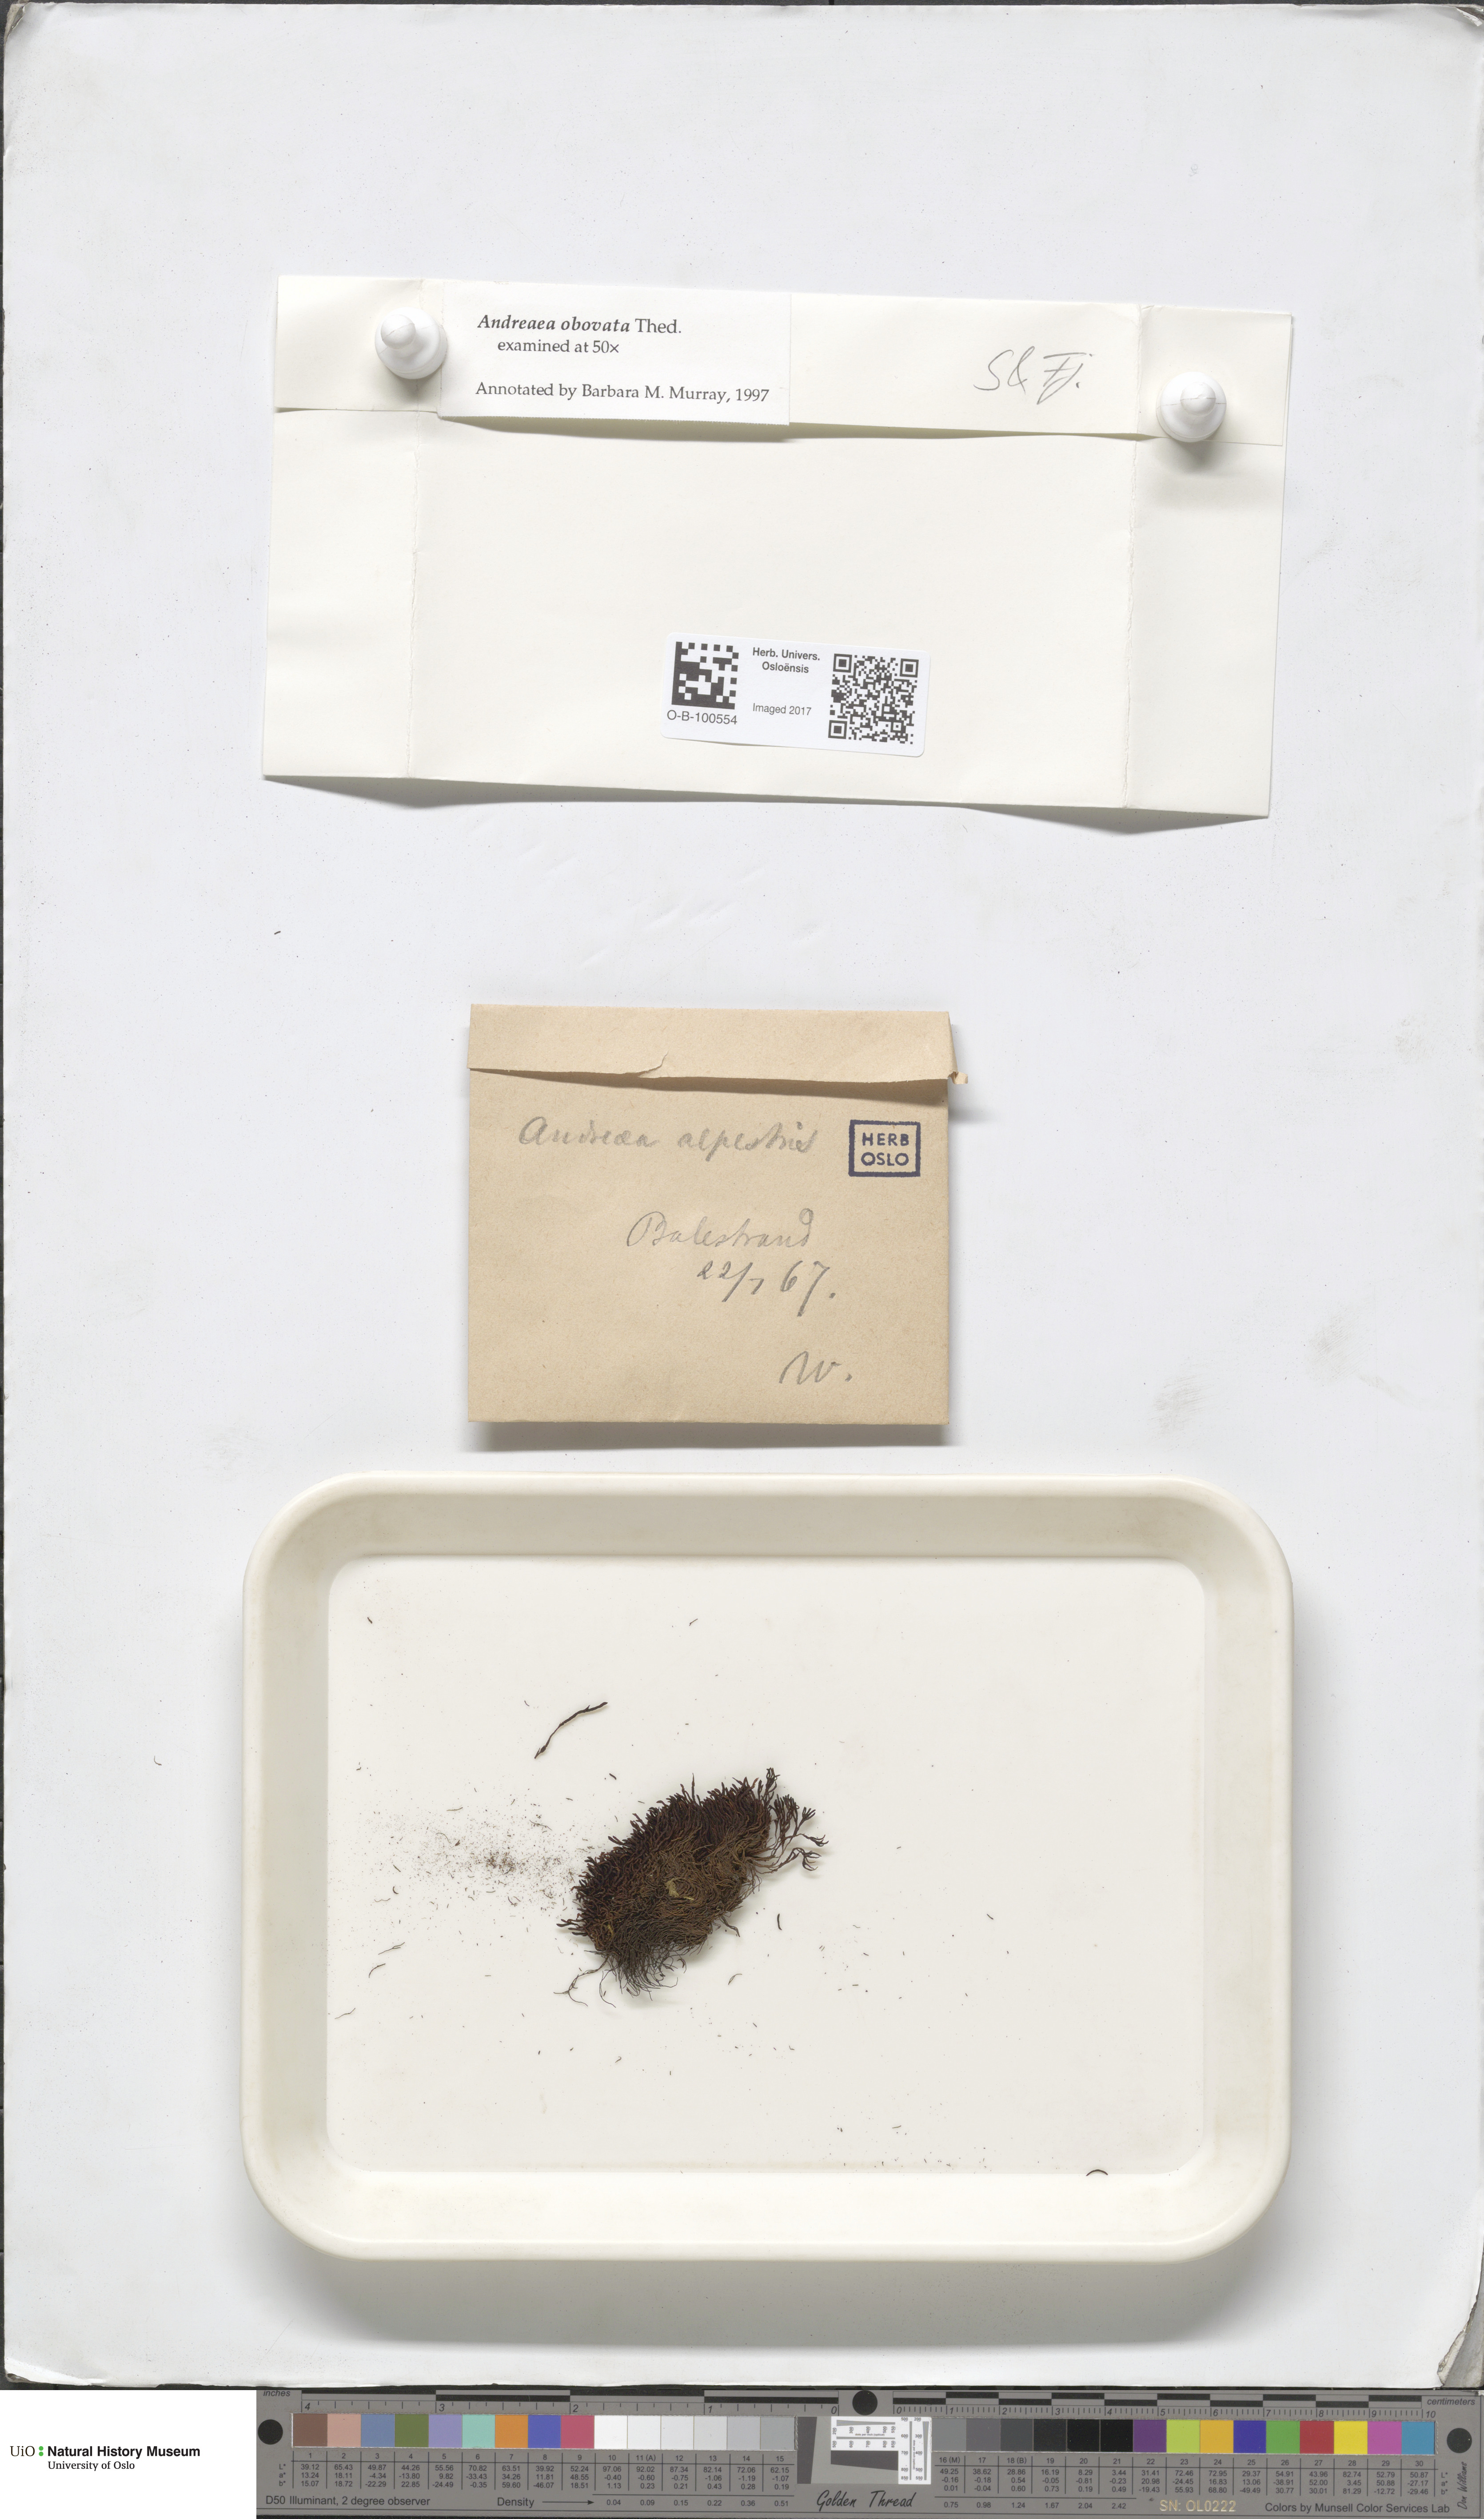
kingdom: Plantae
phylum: Bryophyta
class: Andreaeopsida
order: Andreaeales
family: Andreaeaceae
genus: Andreaea
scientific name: Andreaea alpina
